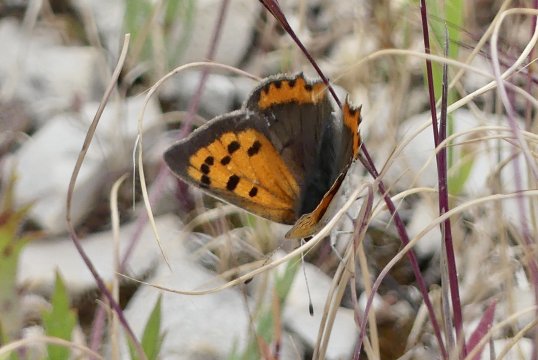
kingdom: Animalia
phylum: Arthropoda
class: Insecta
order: Lepidoptera
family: Lycaenidae
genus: Lycaena
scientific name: Lycaena phlaeas
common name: American Copper
